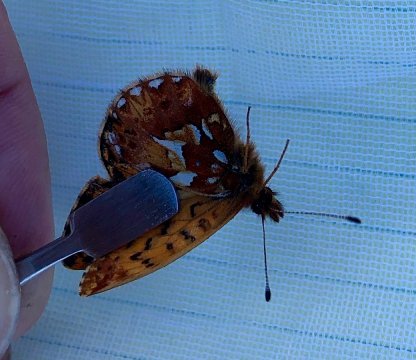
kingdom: Animalia
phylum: Arthropoda
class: Insecta
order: Lepidoptera
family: Nymphalidae
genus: Boloria
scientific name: Boloria freija
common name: Freija Fritillary
